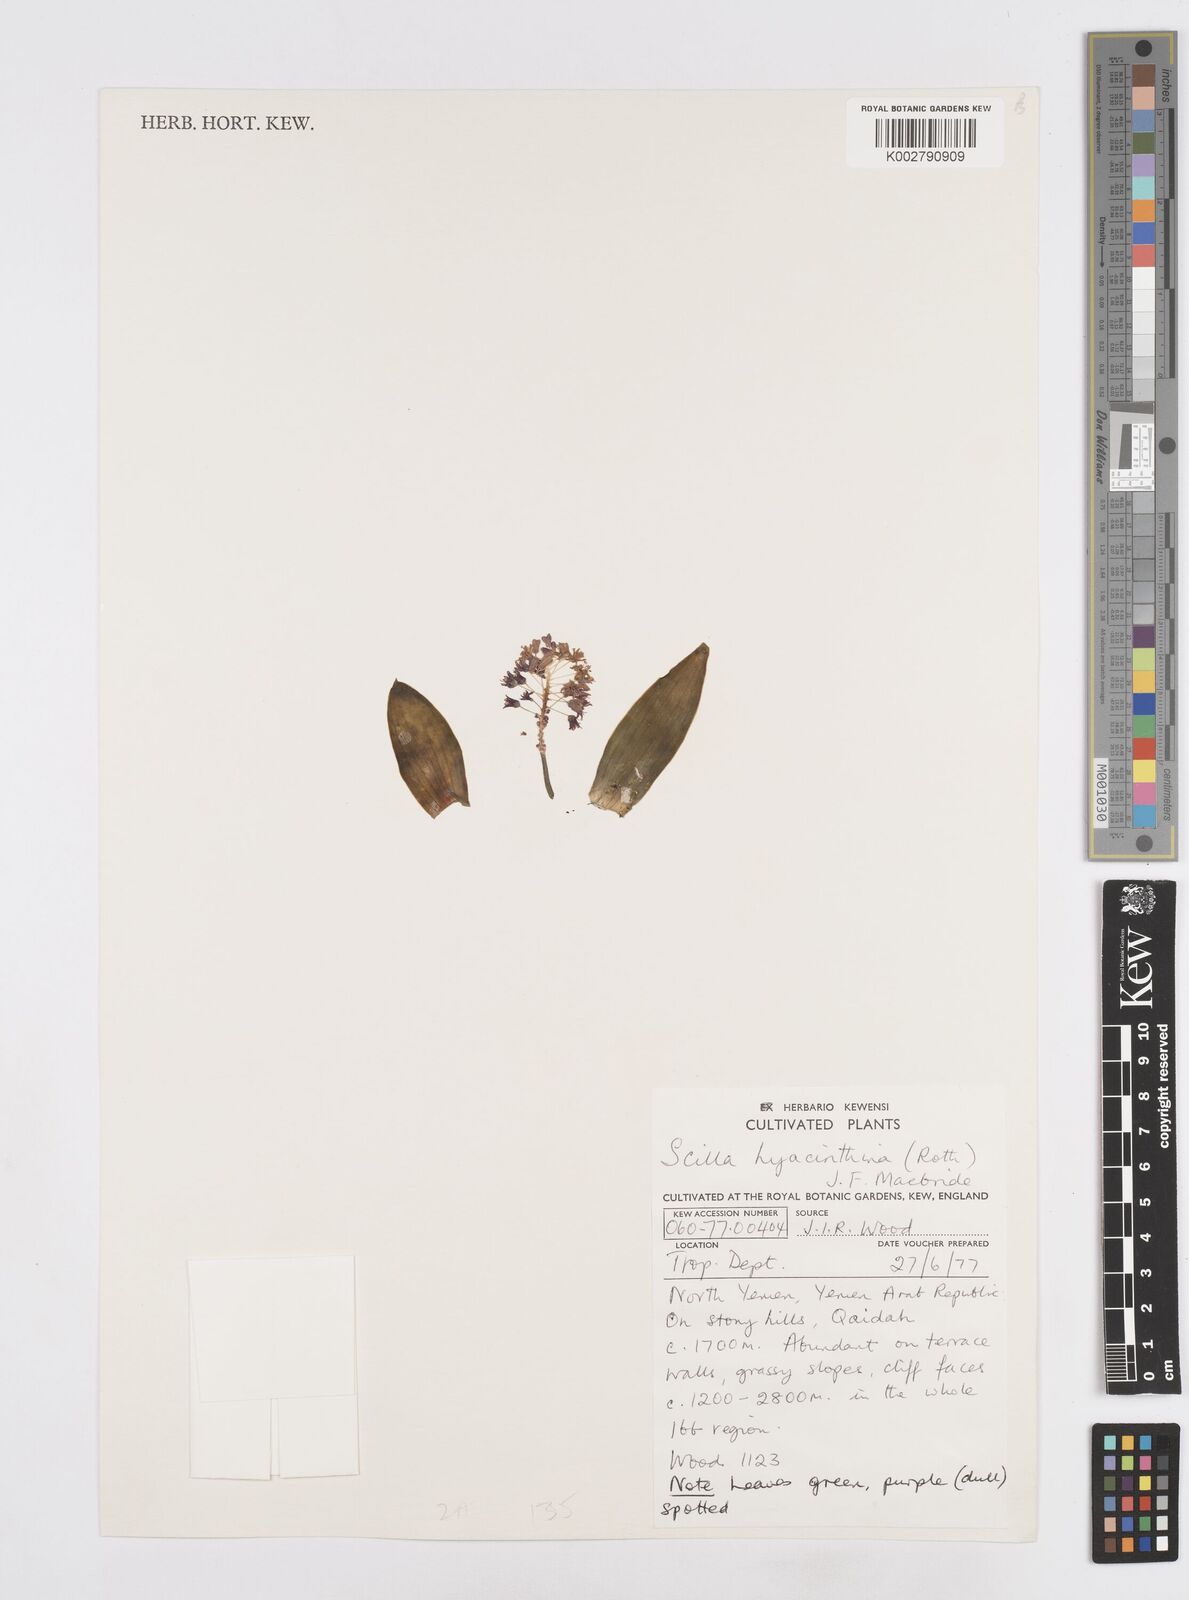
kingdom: Plantae
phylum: Tracheophyta
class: Liliopsida
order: Asparagales
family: Asparagaceae
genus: Ledebouria
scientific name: Ledebouria revoluta
